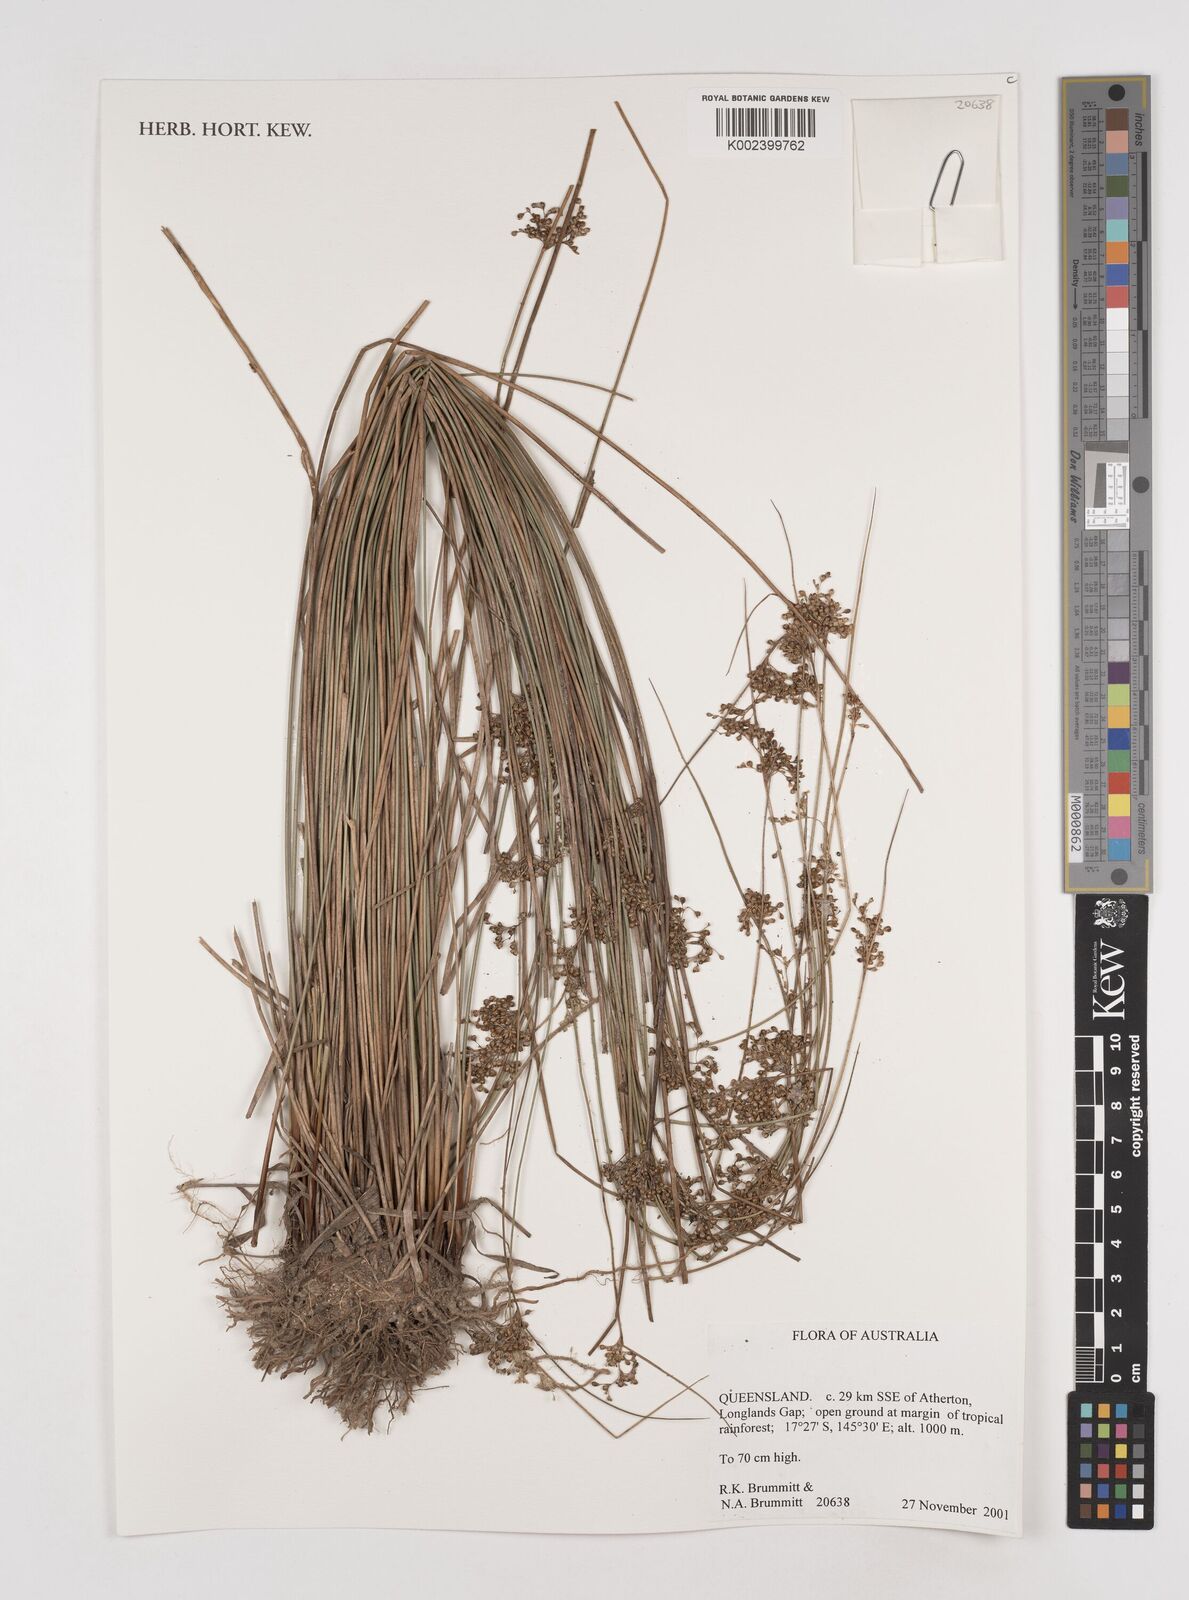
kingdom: Plantae
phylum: Tracheophyta
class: Liliopsida
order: Poales
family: Juncaceae
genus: Juncus
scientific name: Juncus
